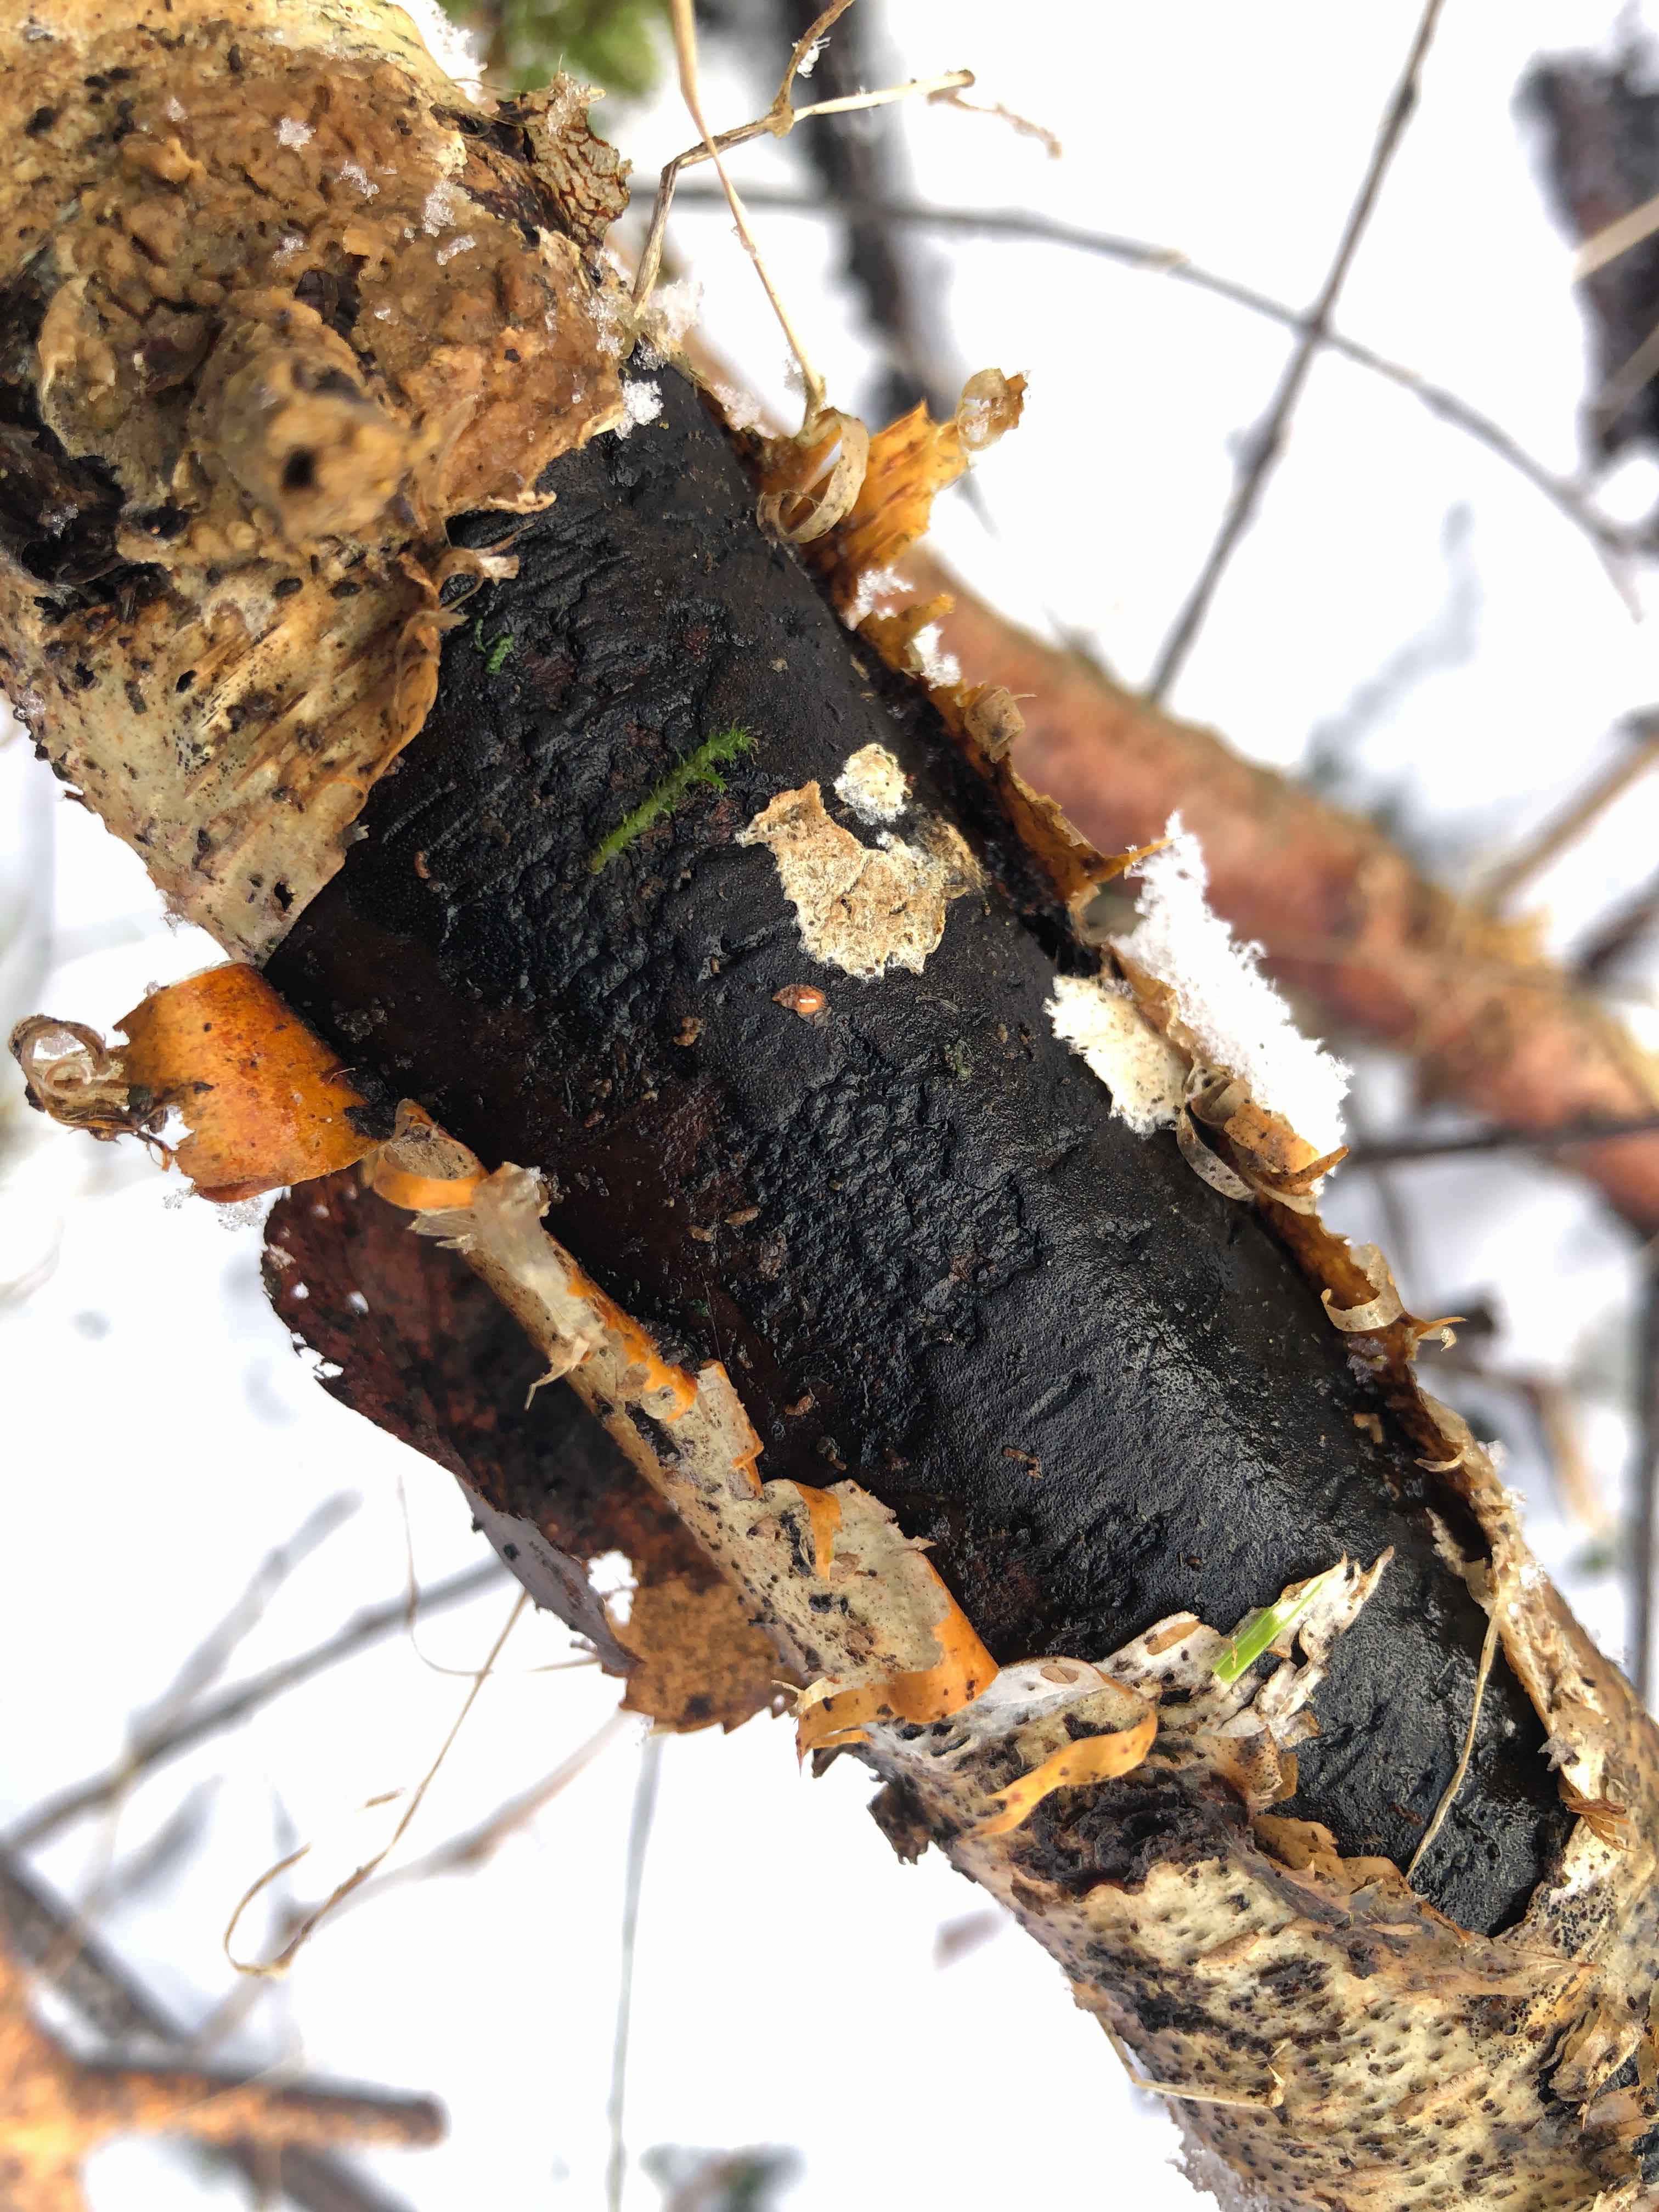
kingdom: Fungi
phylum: Ascomycota
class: Sordariomycetes
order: Xylariales
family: Diatrypaceae
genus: Diatrype
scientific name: Diatrype
